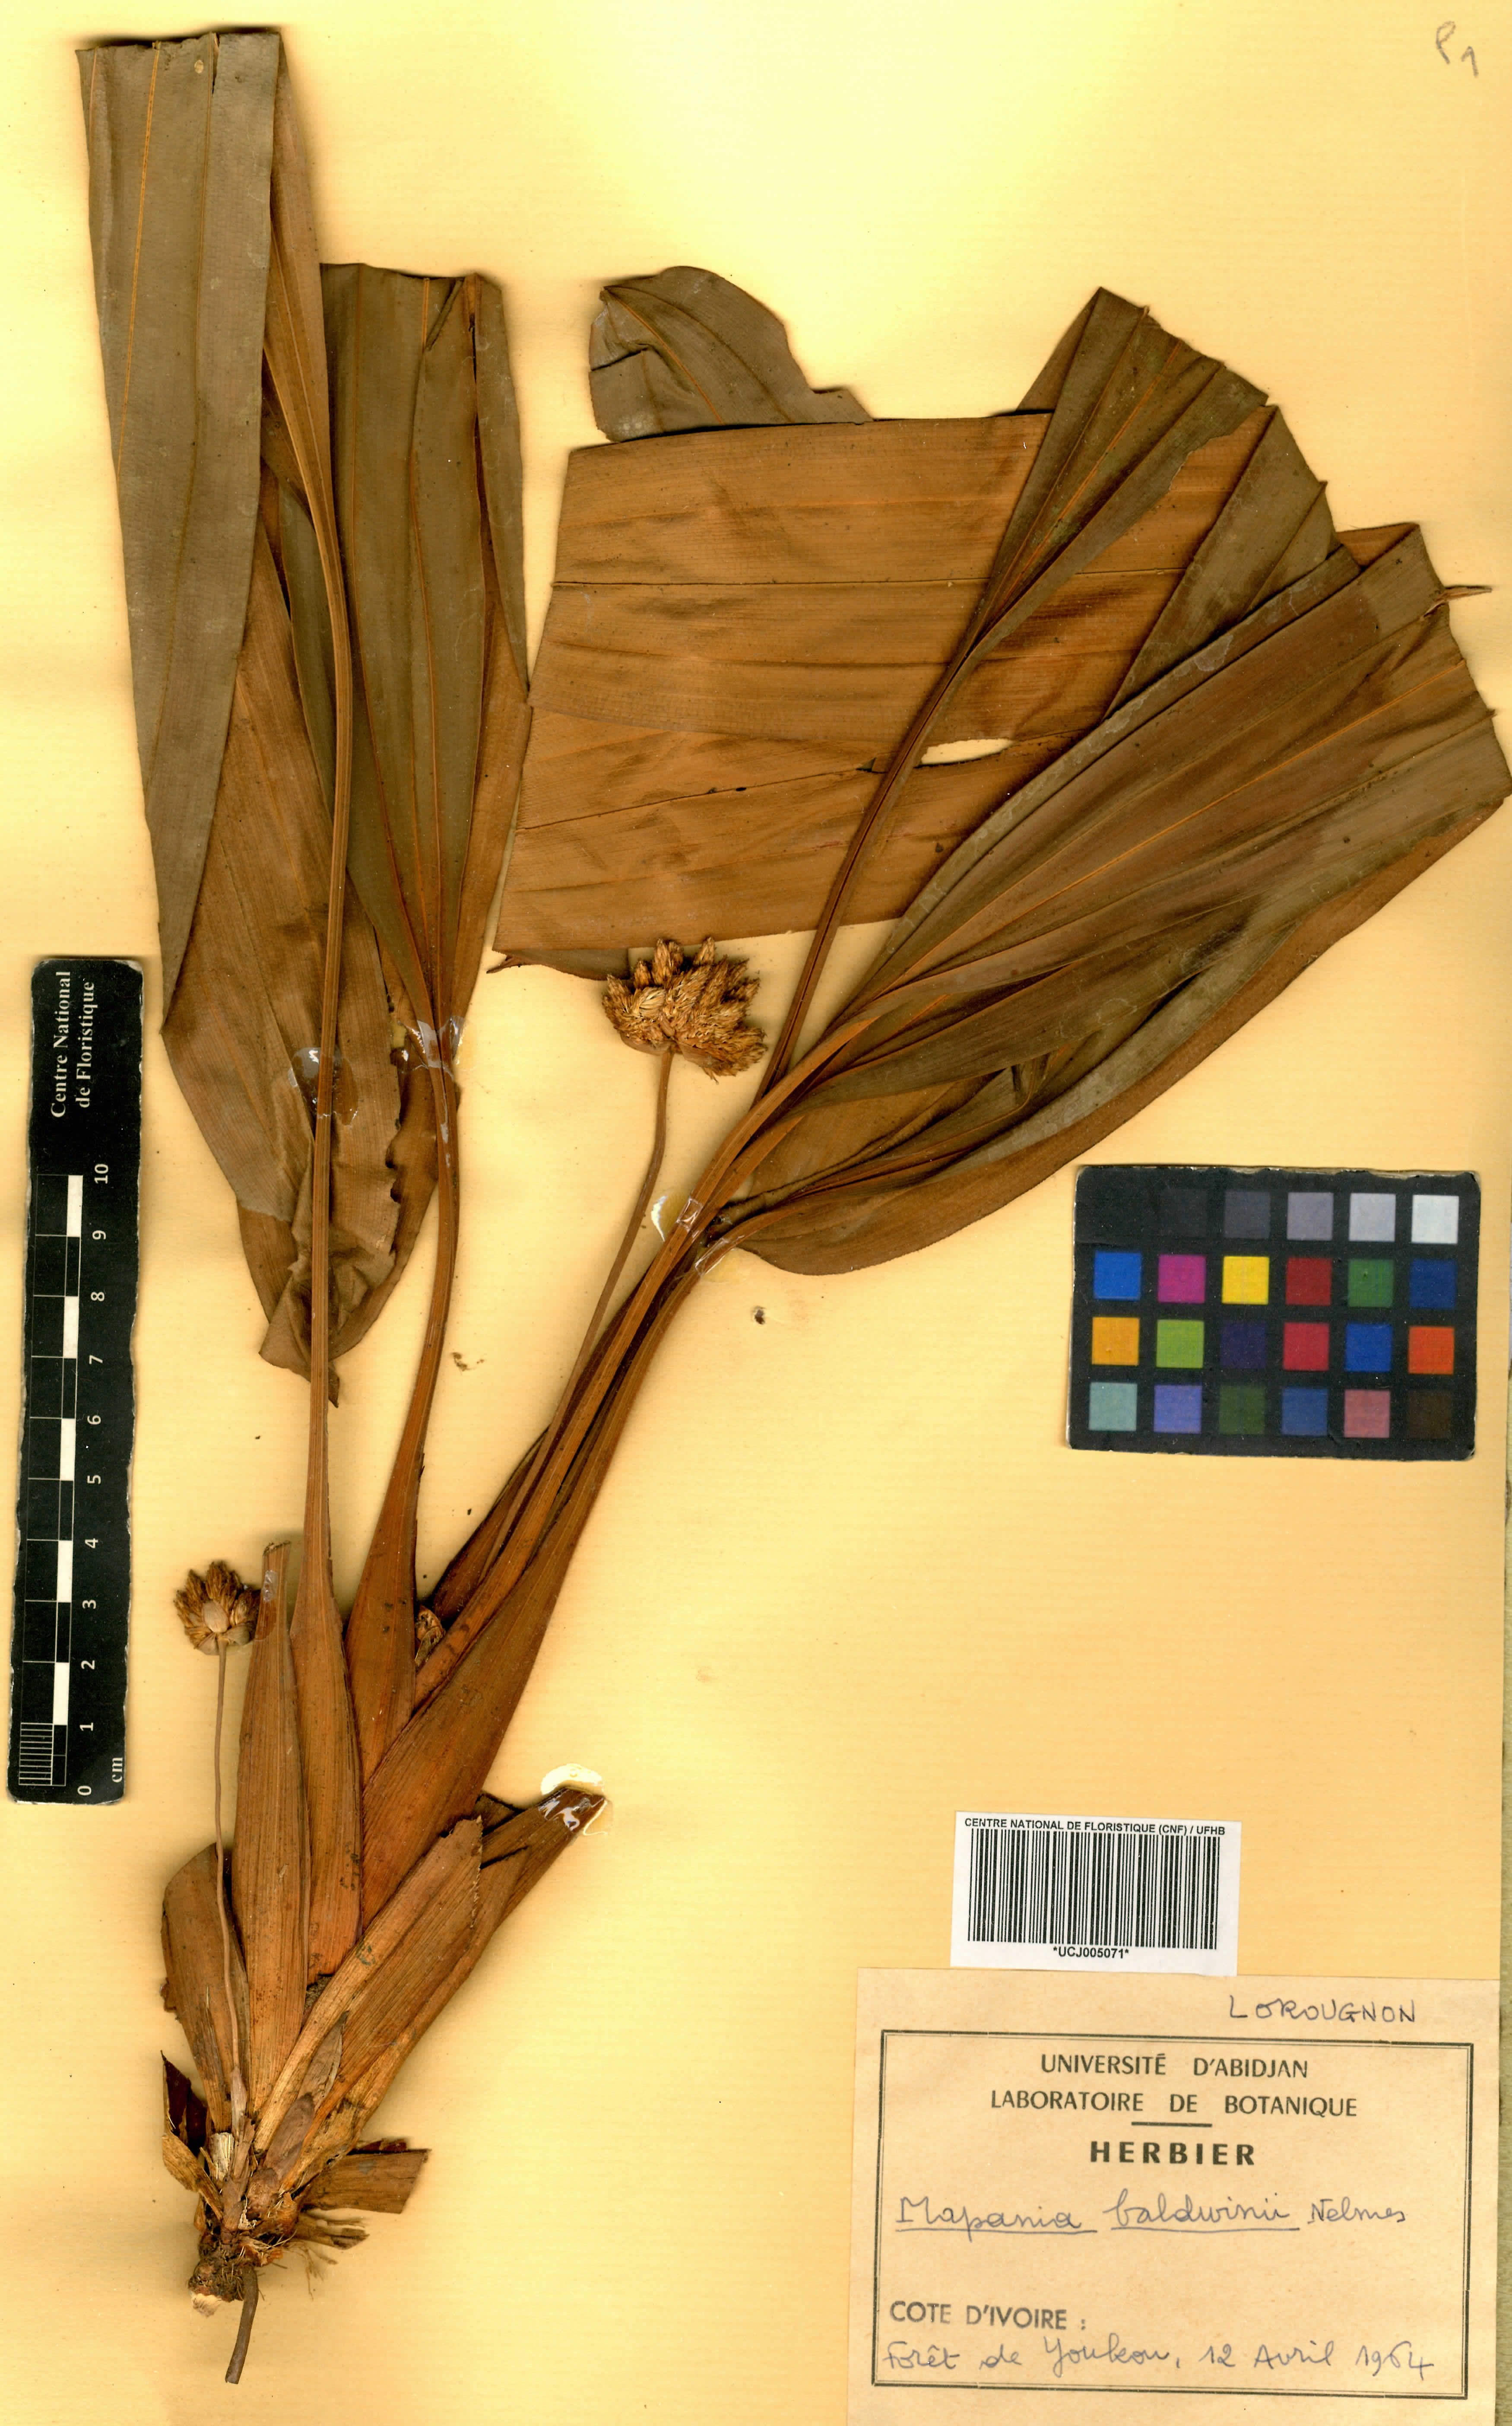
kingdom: Plantae
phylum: Tracheophyta
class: Liliopsida
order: Poales
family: Cyperaceae
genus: Mapania
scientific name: Mapania baldwinii
